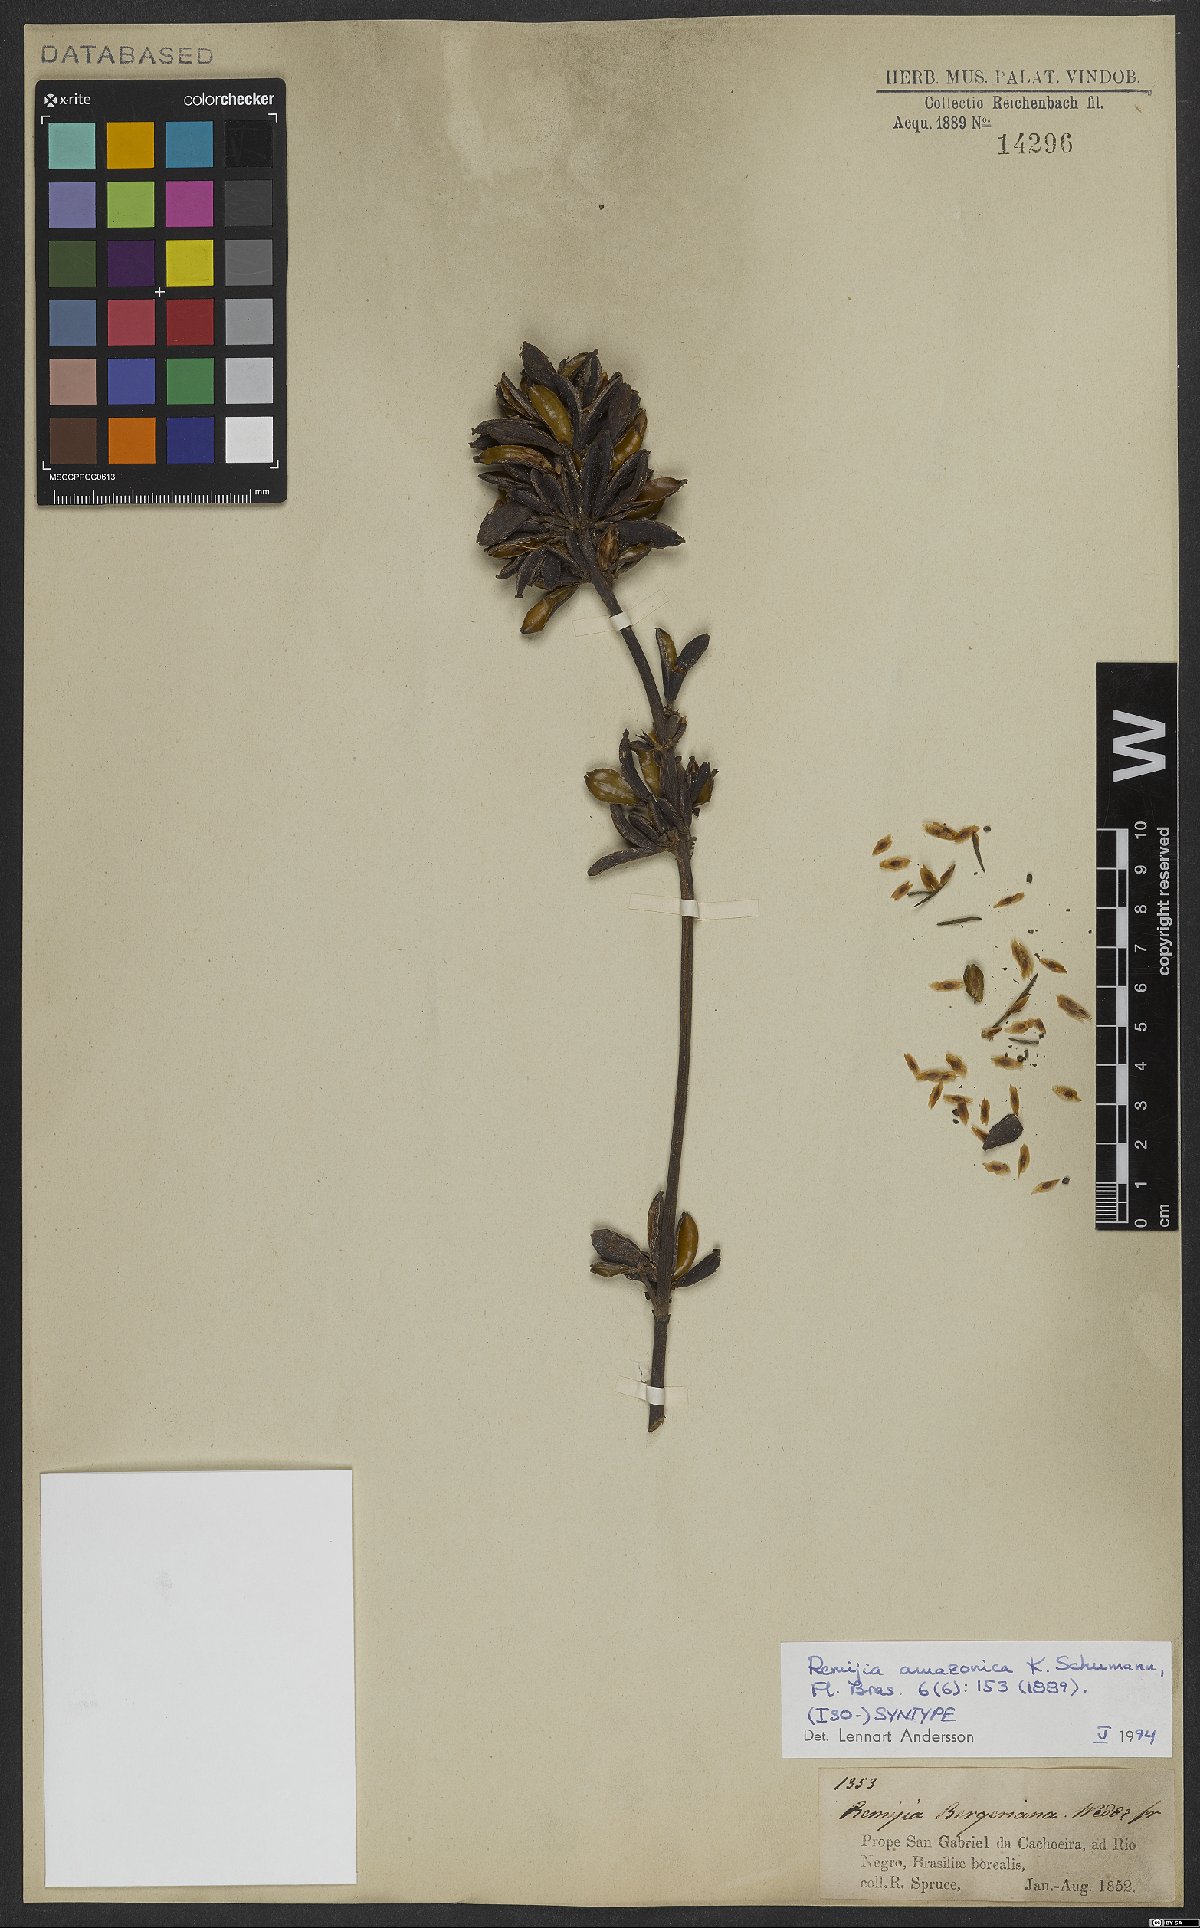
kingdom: Plantae
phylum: Tracheophyta
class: Magnoliopsida
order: Gentianales
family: Rubiaceae
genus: Remijia
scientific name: Remijia amazonica
